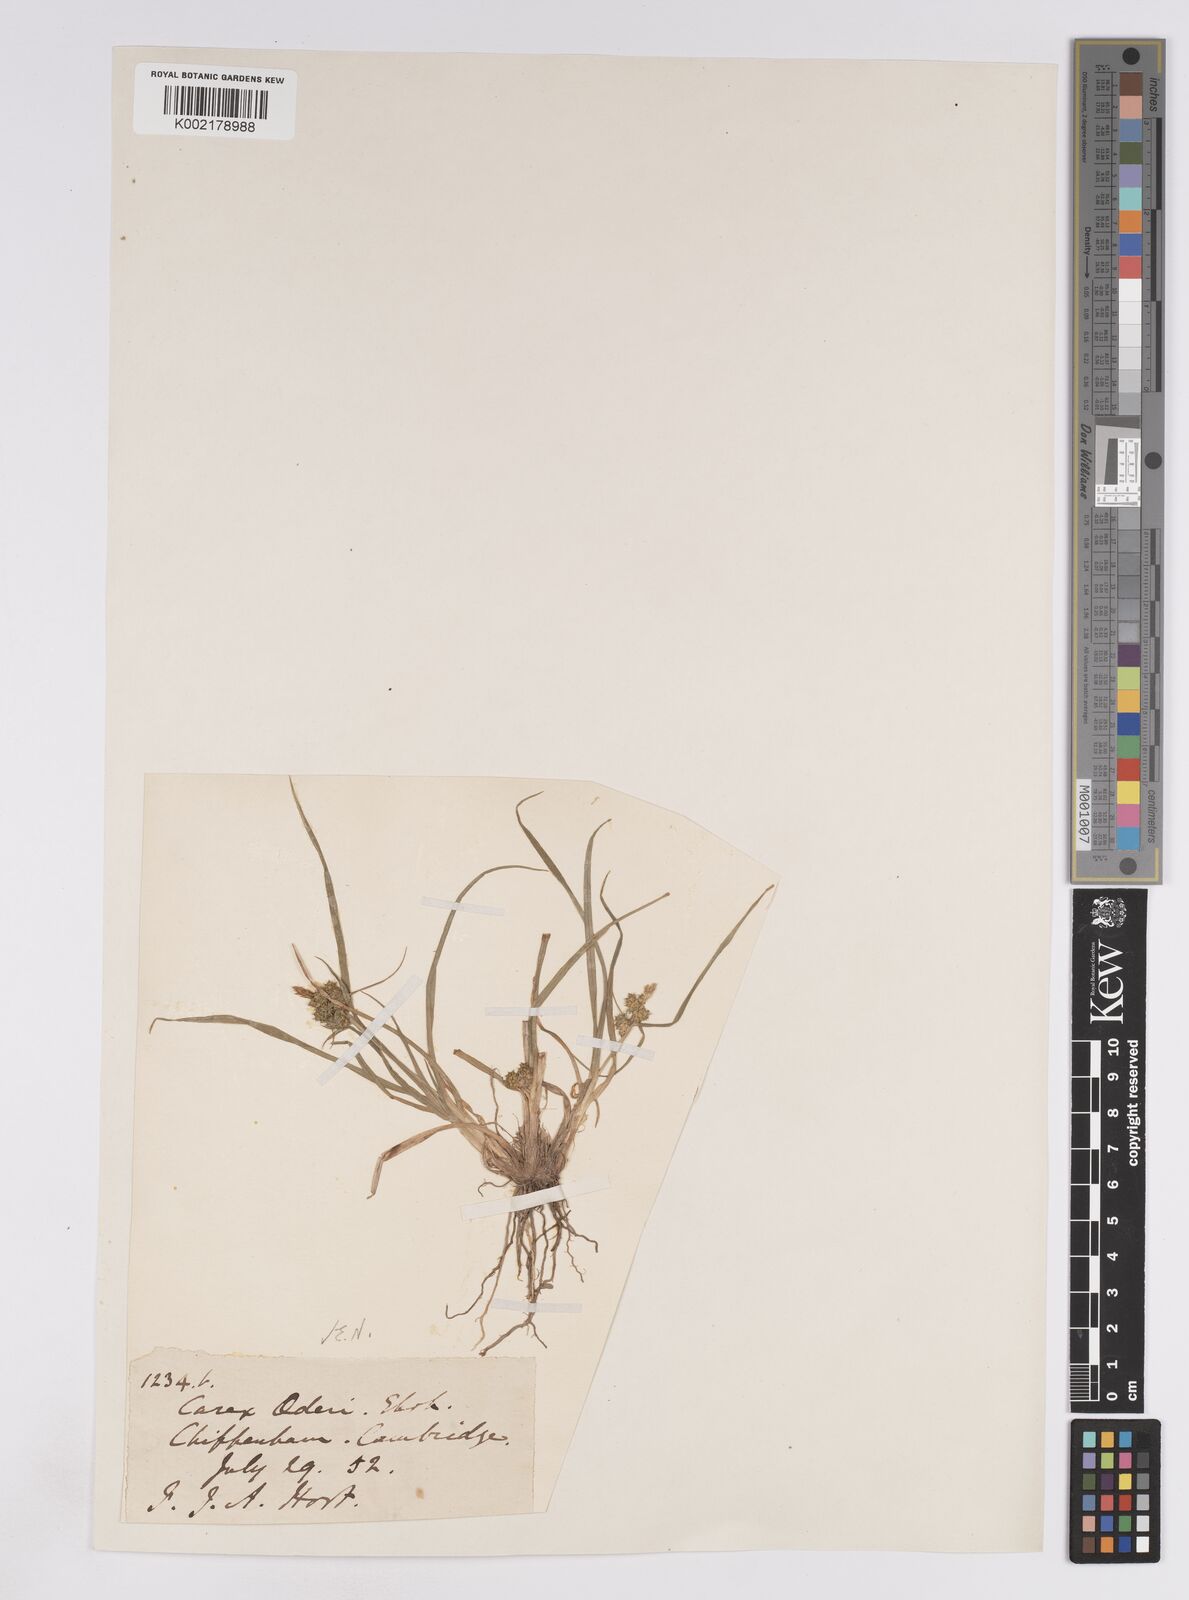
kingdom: Plantae
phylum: Tracheophyta
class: Liliopsida
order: Poales
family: Cyperaceae
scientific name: Cyperaceae
